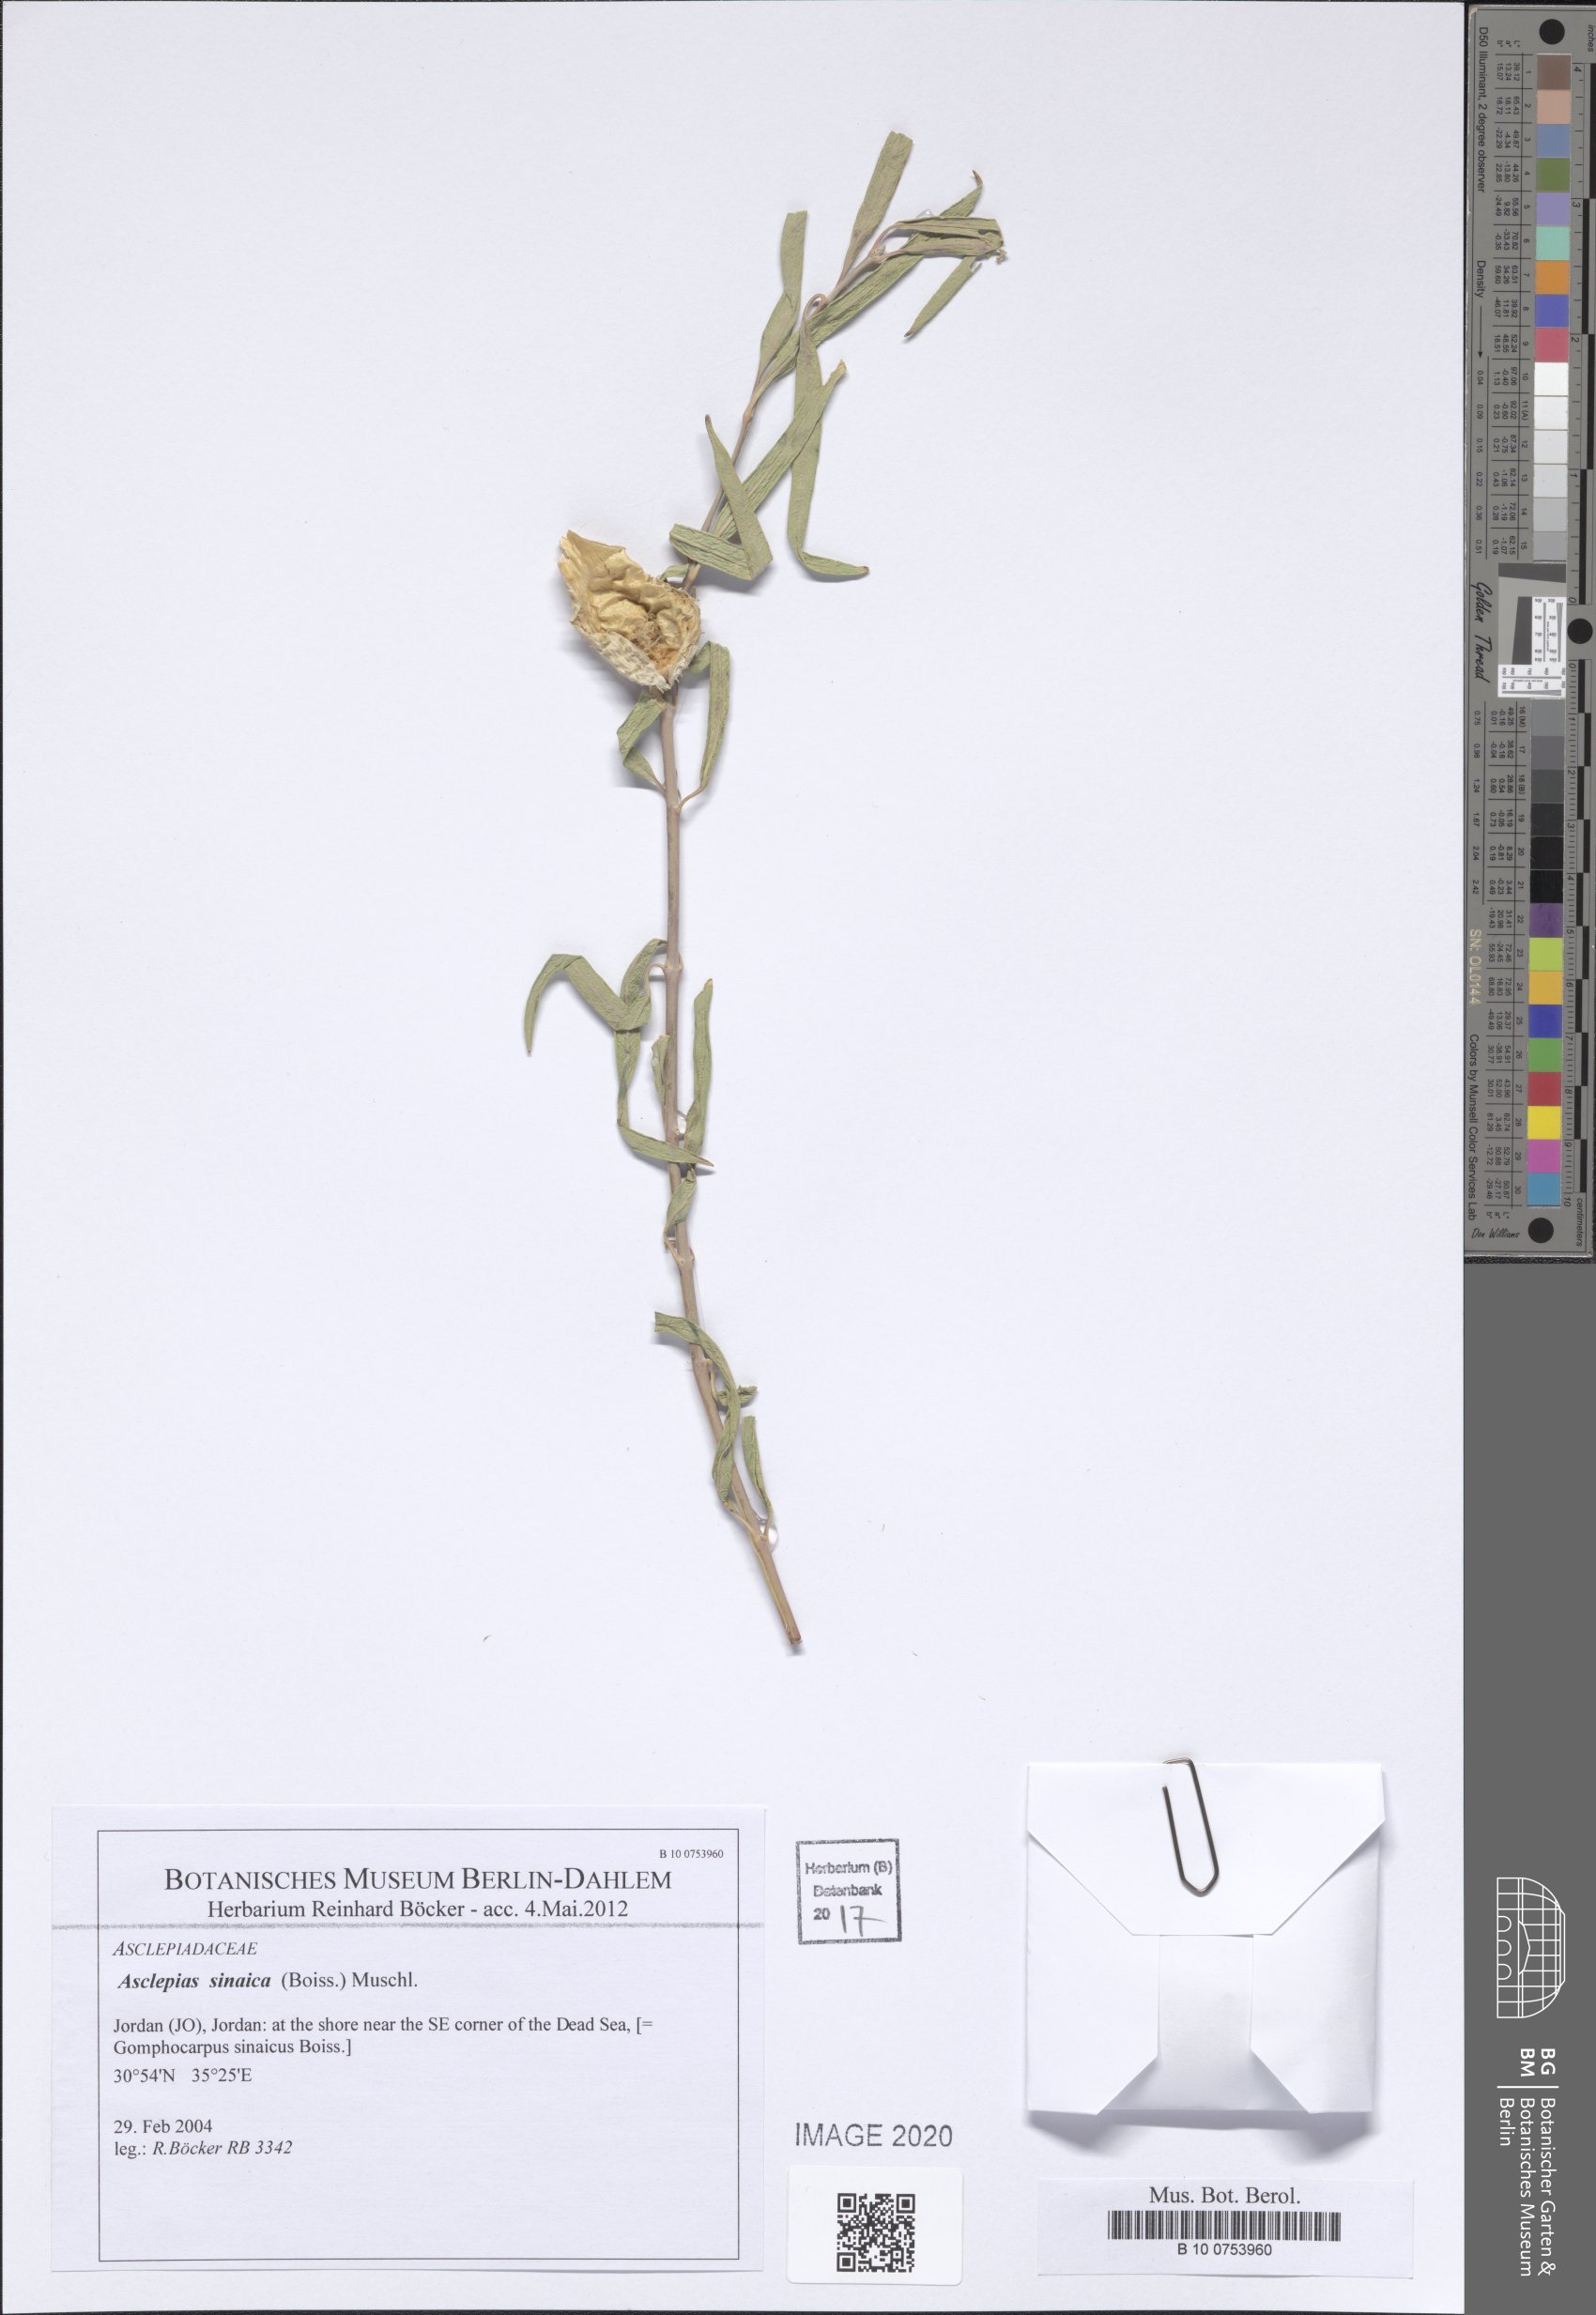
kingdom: Plantae
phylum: Tracheophyta
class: Magnoliopsida
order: Gentianales
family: Apocynaceae
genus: Gomphocarpus
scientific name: Gomphocarpus sinaicus
